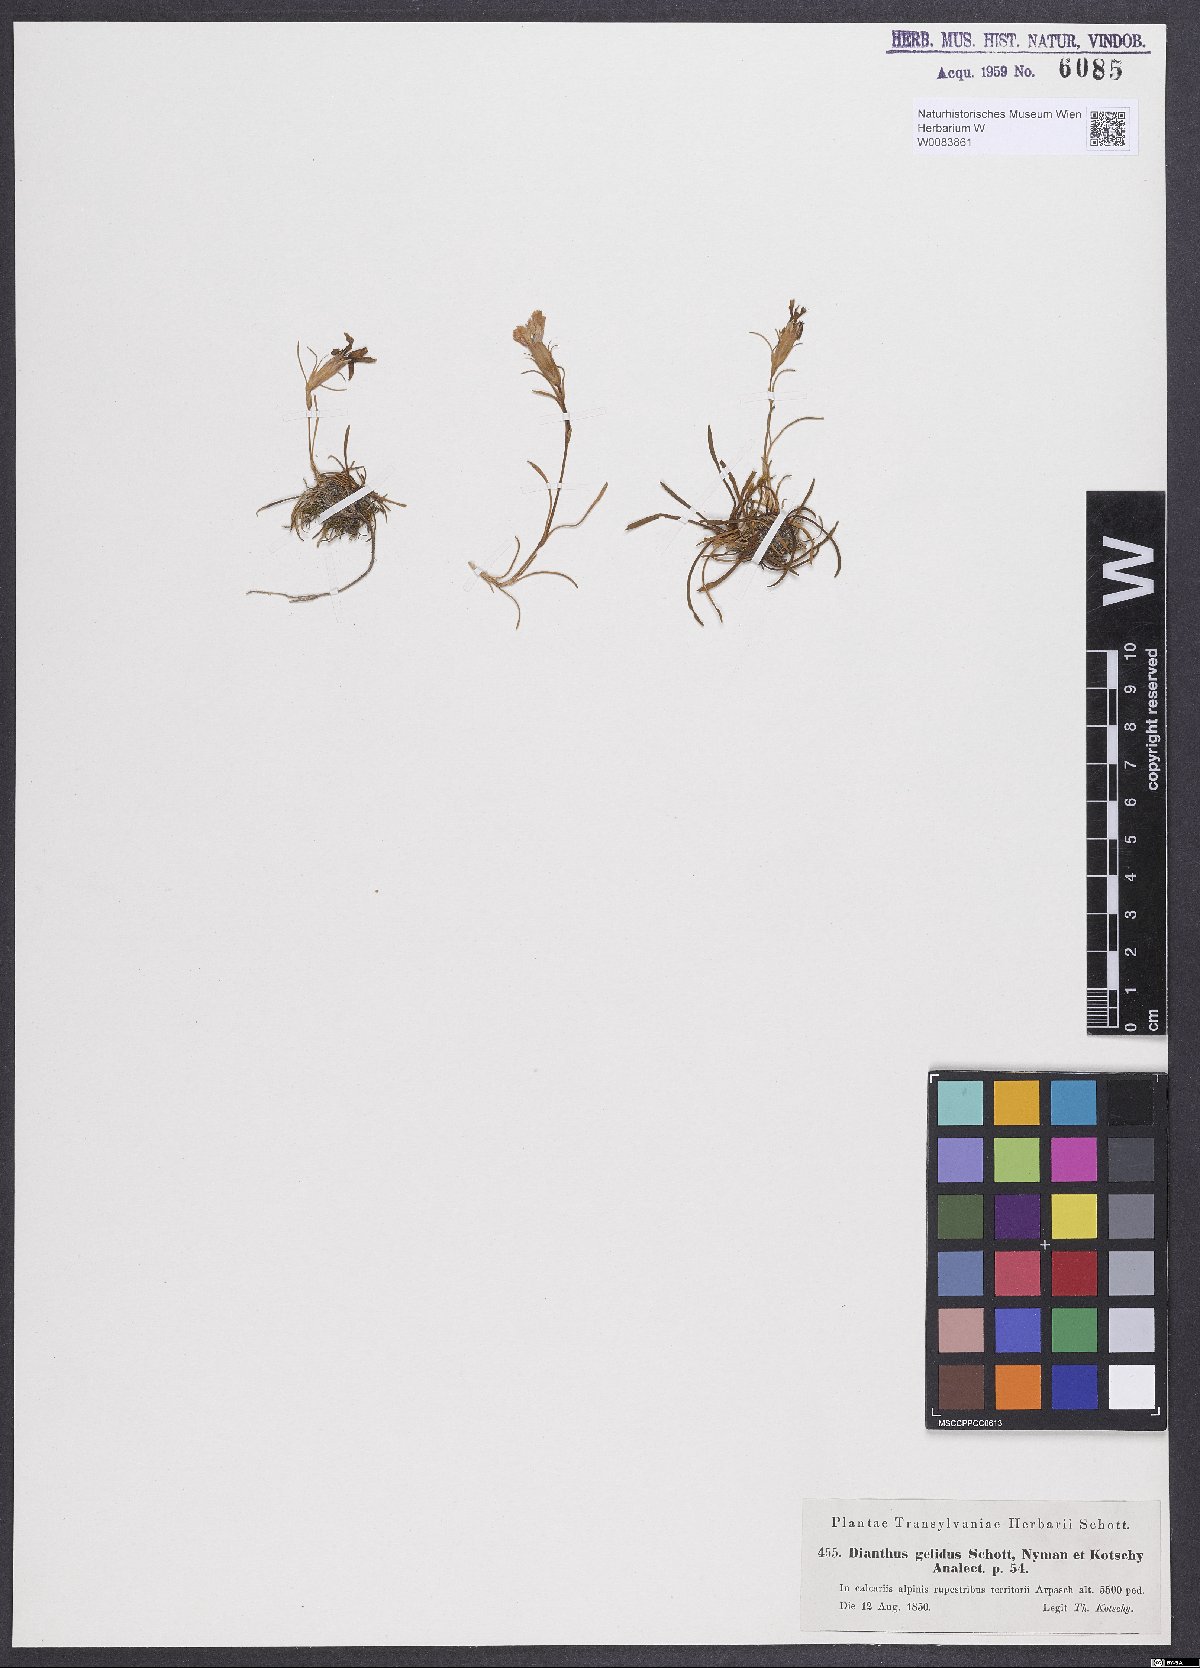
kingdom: Plantae
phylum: Tracheophyta
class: Magnoliopsida
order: Caryophyllales
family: Caryophyllaceae
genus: Dianthus
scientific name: Dianthus glacialis
